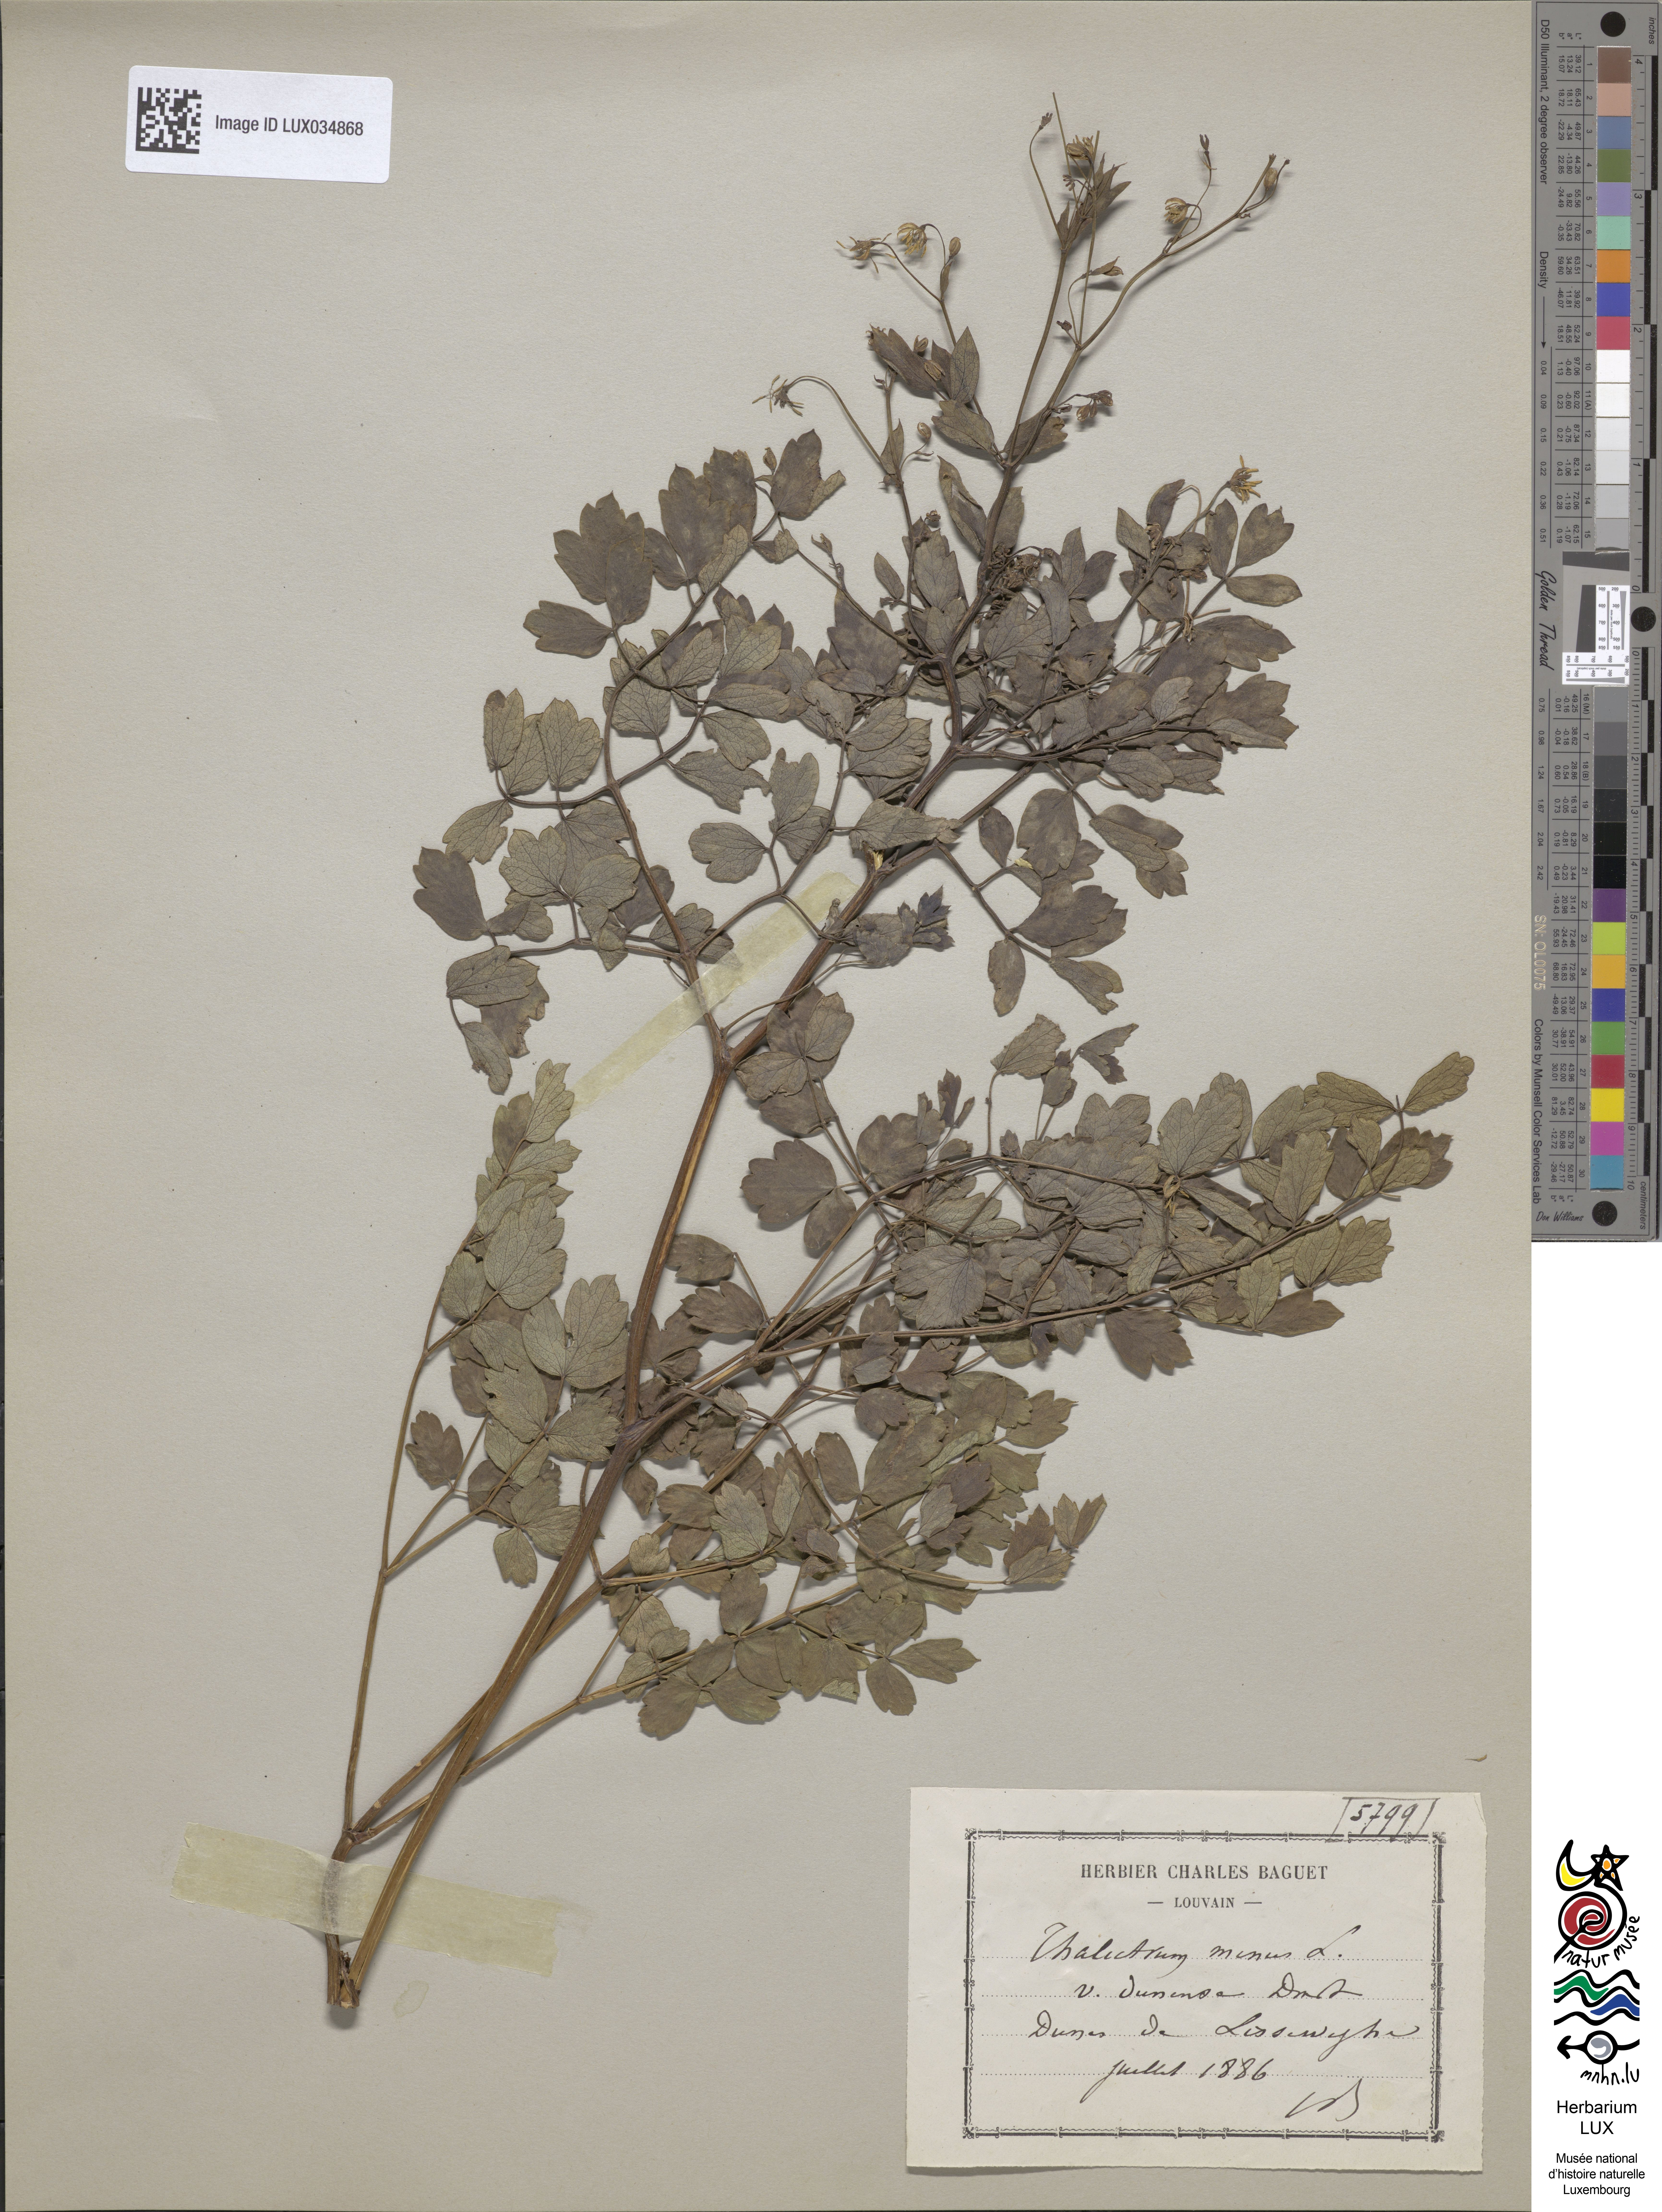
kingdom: Plantae
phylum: Tracheophyta
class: Magnoliopsida
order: Ranunculales
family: Ranunculaceae
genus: Thalictrum
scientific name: Thalictrum minus
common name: Lesser meadow-rue
